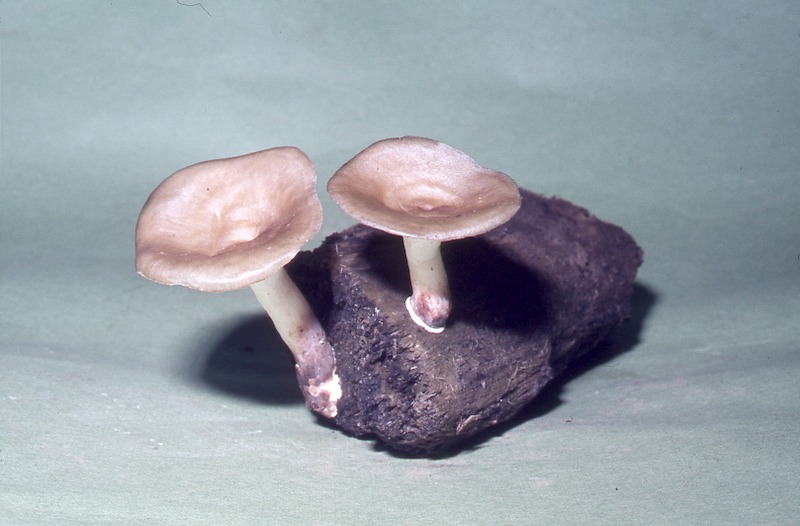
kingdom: Fungi
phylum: Basidiomycota
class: Agaricomycetes
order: Polyporales
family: Polyporaceae
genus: Cerioporus
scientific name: Cerioporus varius
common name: Elegant polypore
